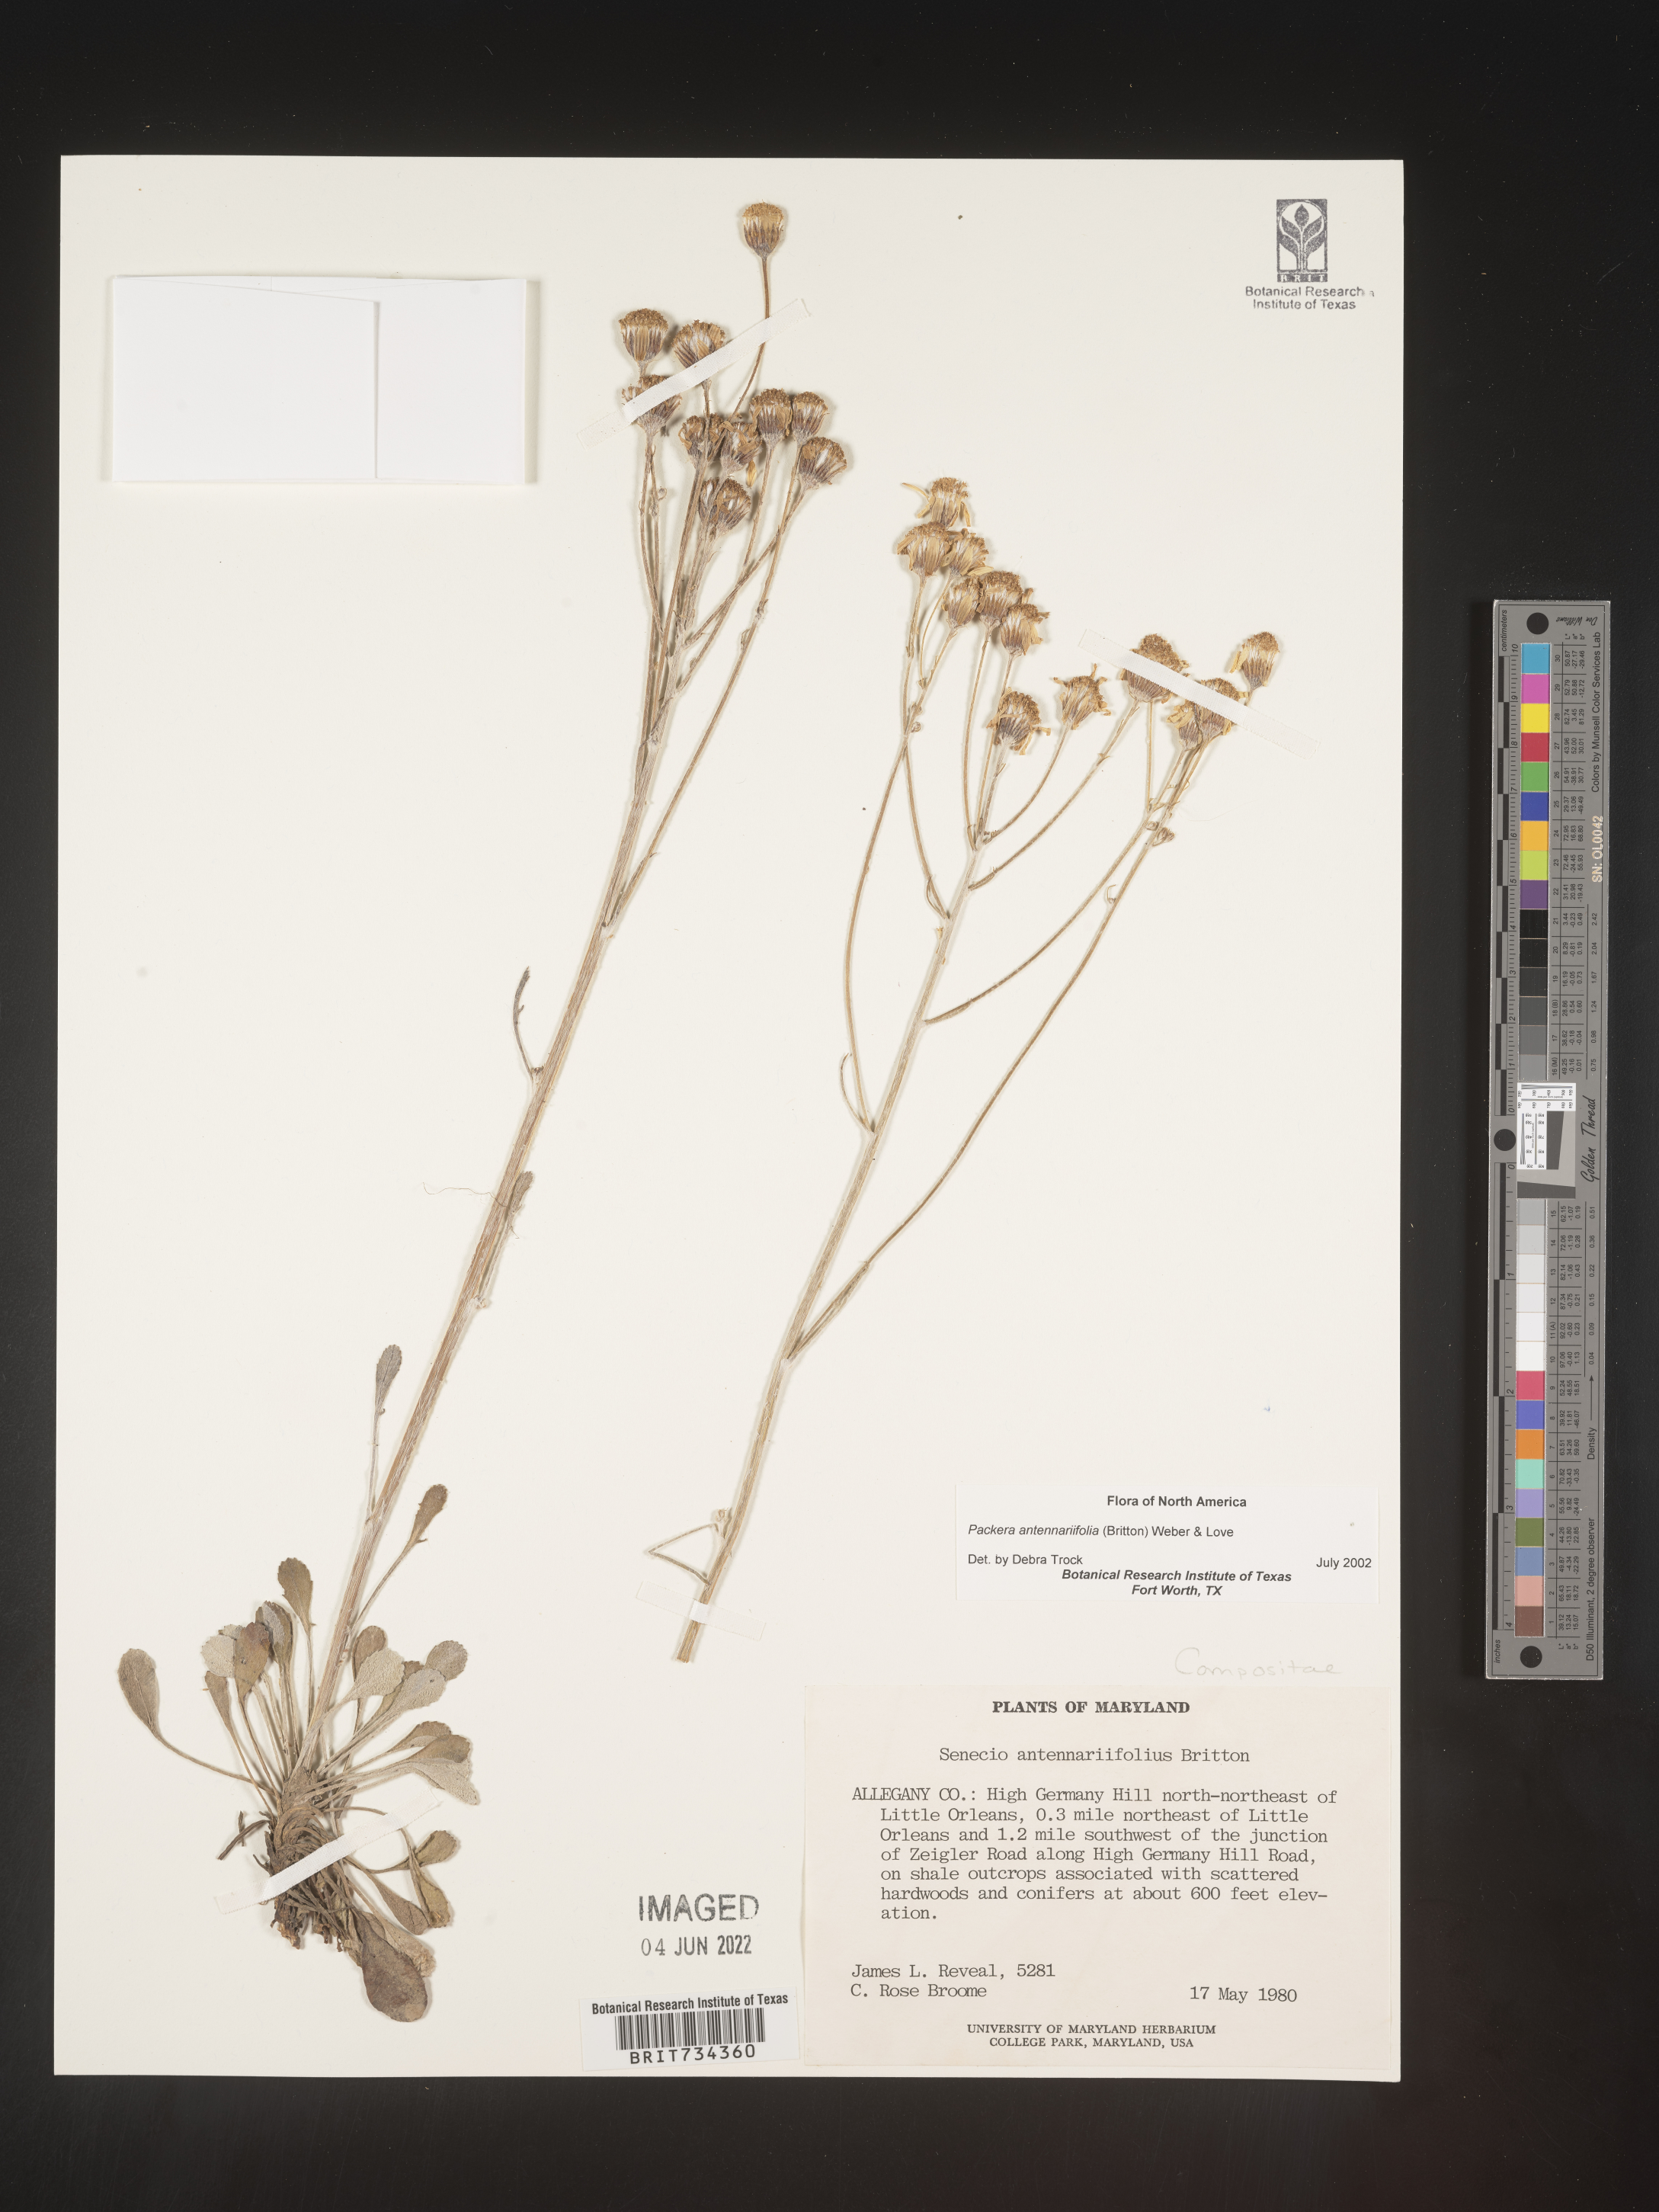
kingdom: Plantae
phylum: Tracheophyta
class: Magnoliopsida
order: Asterales
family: Asteraceae
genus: Packera
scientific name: Packera antennariifolia
